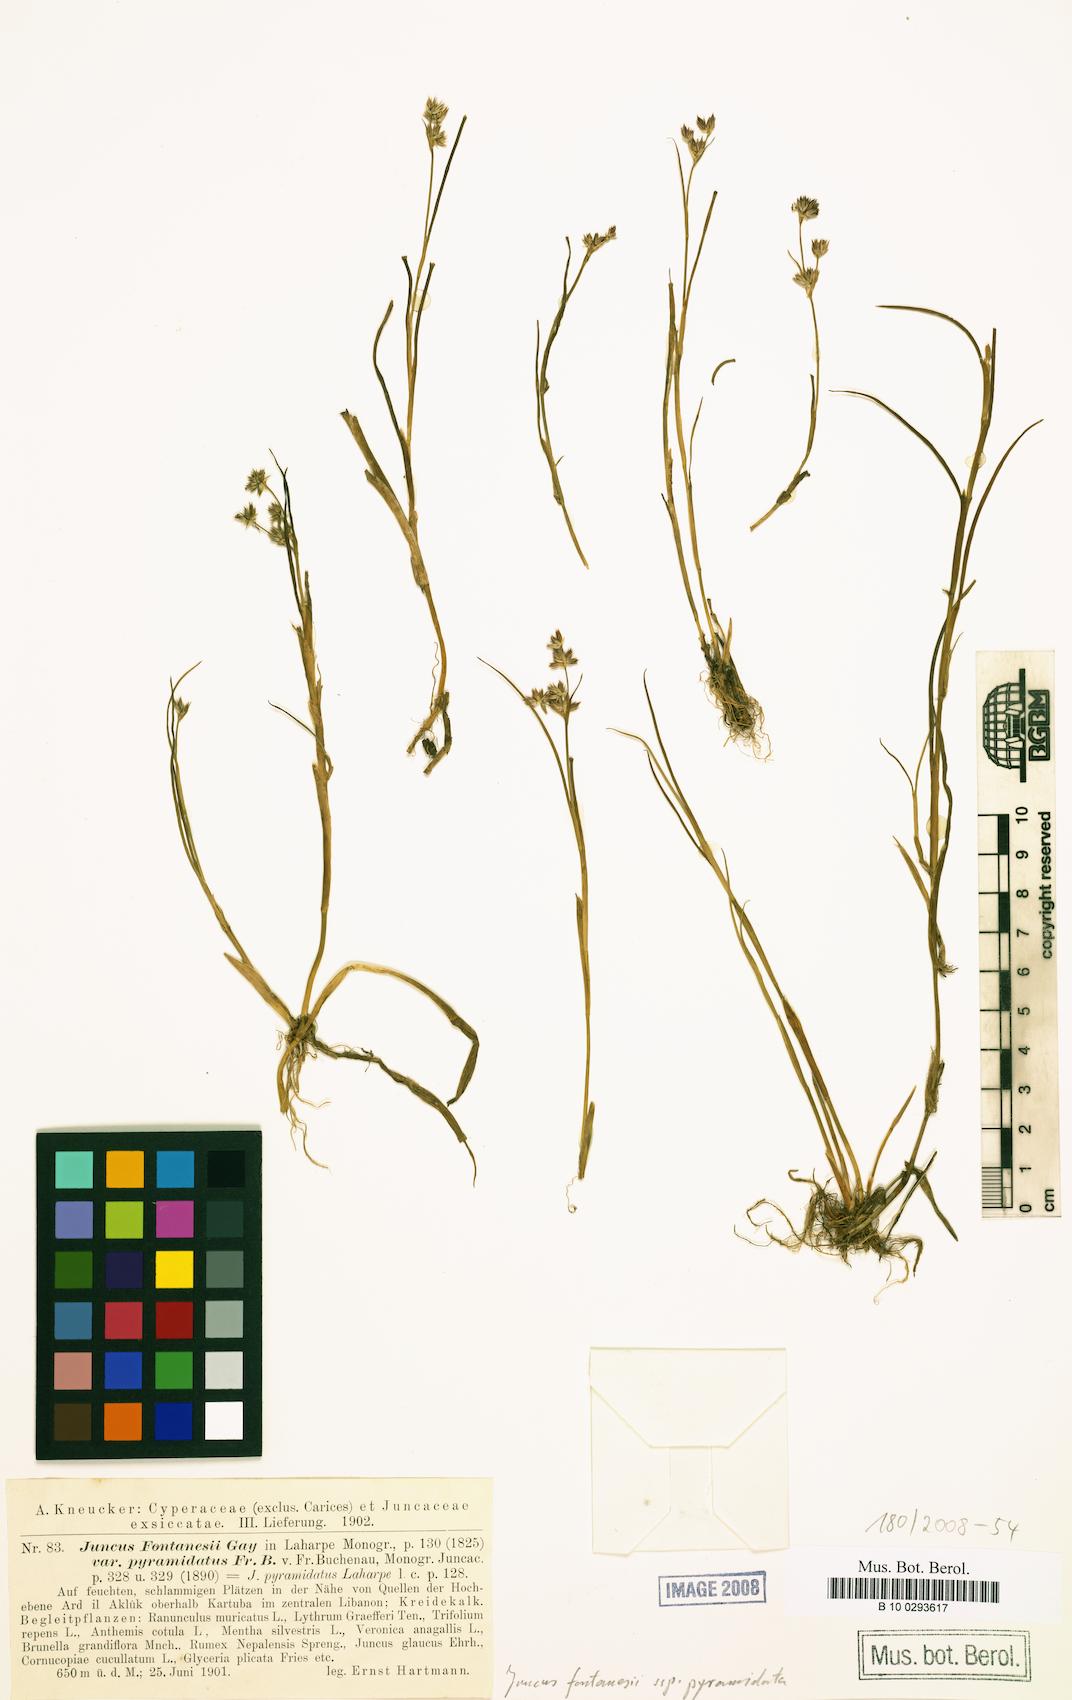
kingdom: Plantae
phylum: Tracheophyta
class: Liliopsida
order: Poales
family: Juncaceae
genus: Juncus
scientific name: Juncus fontanesii
